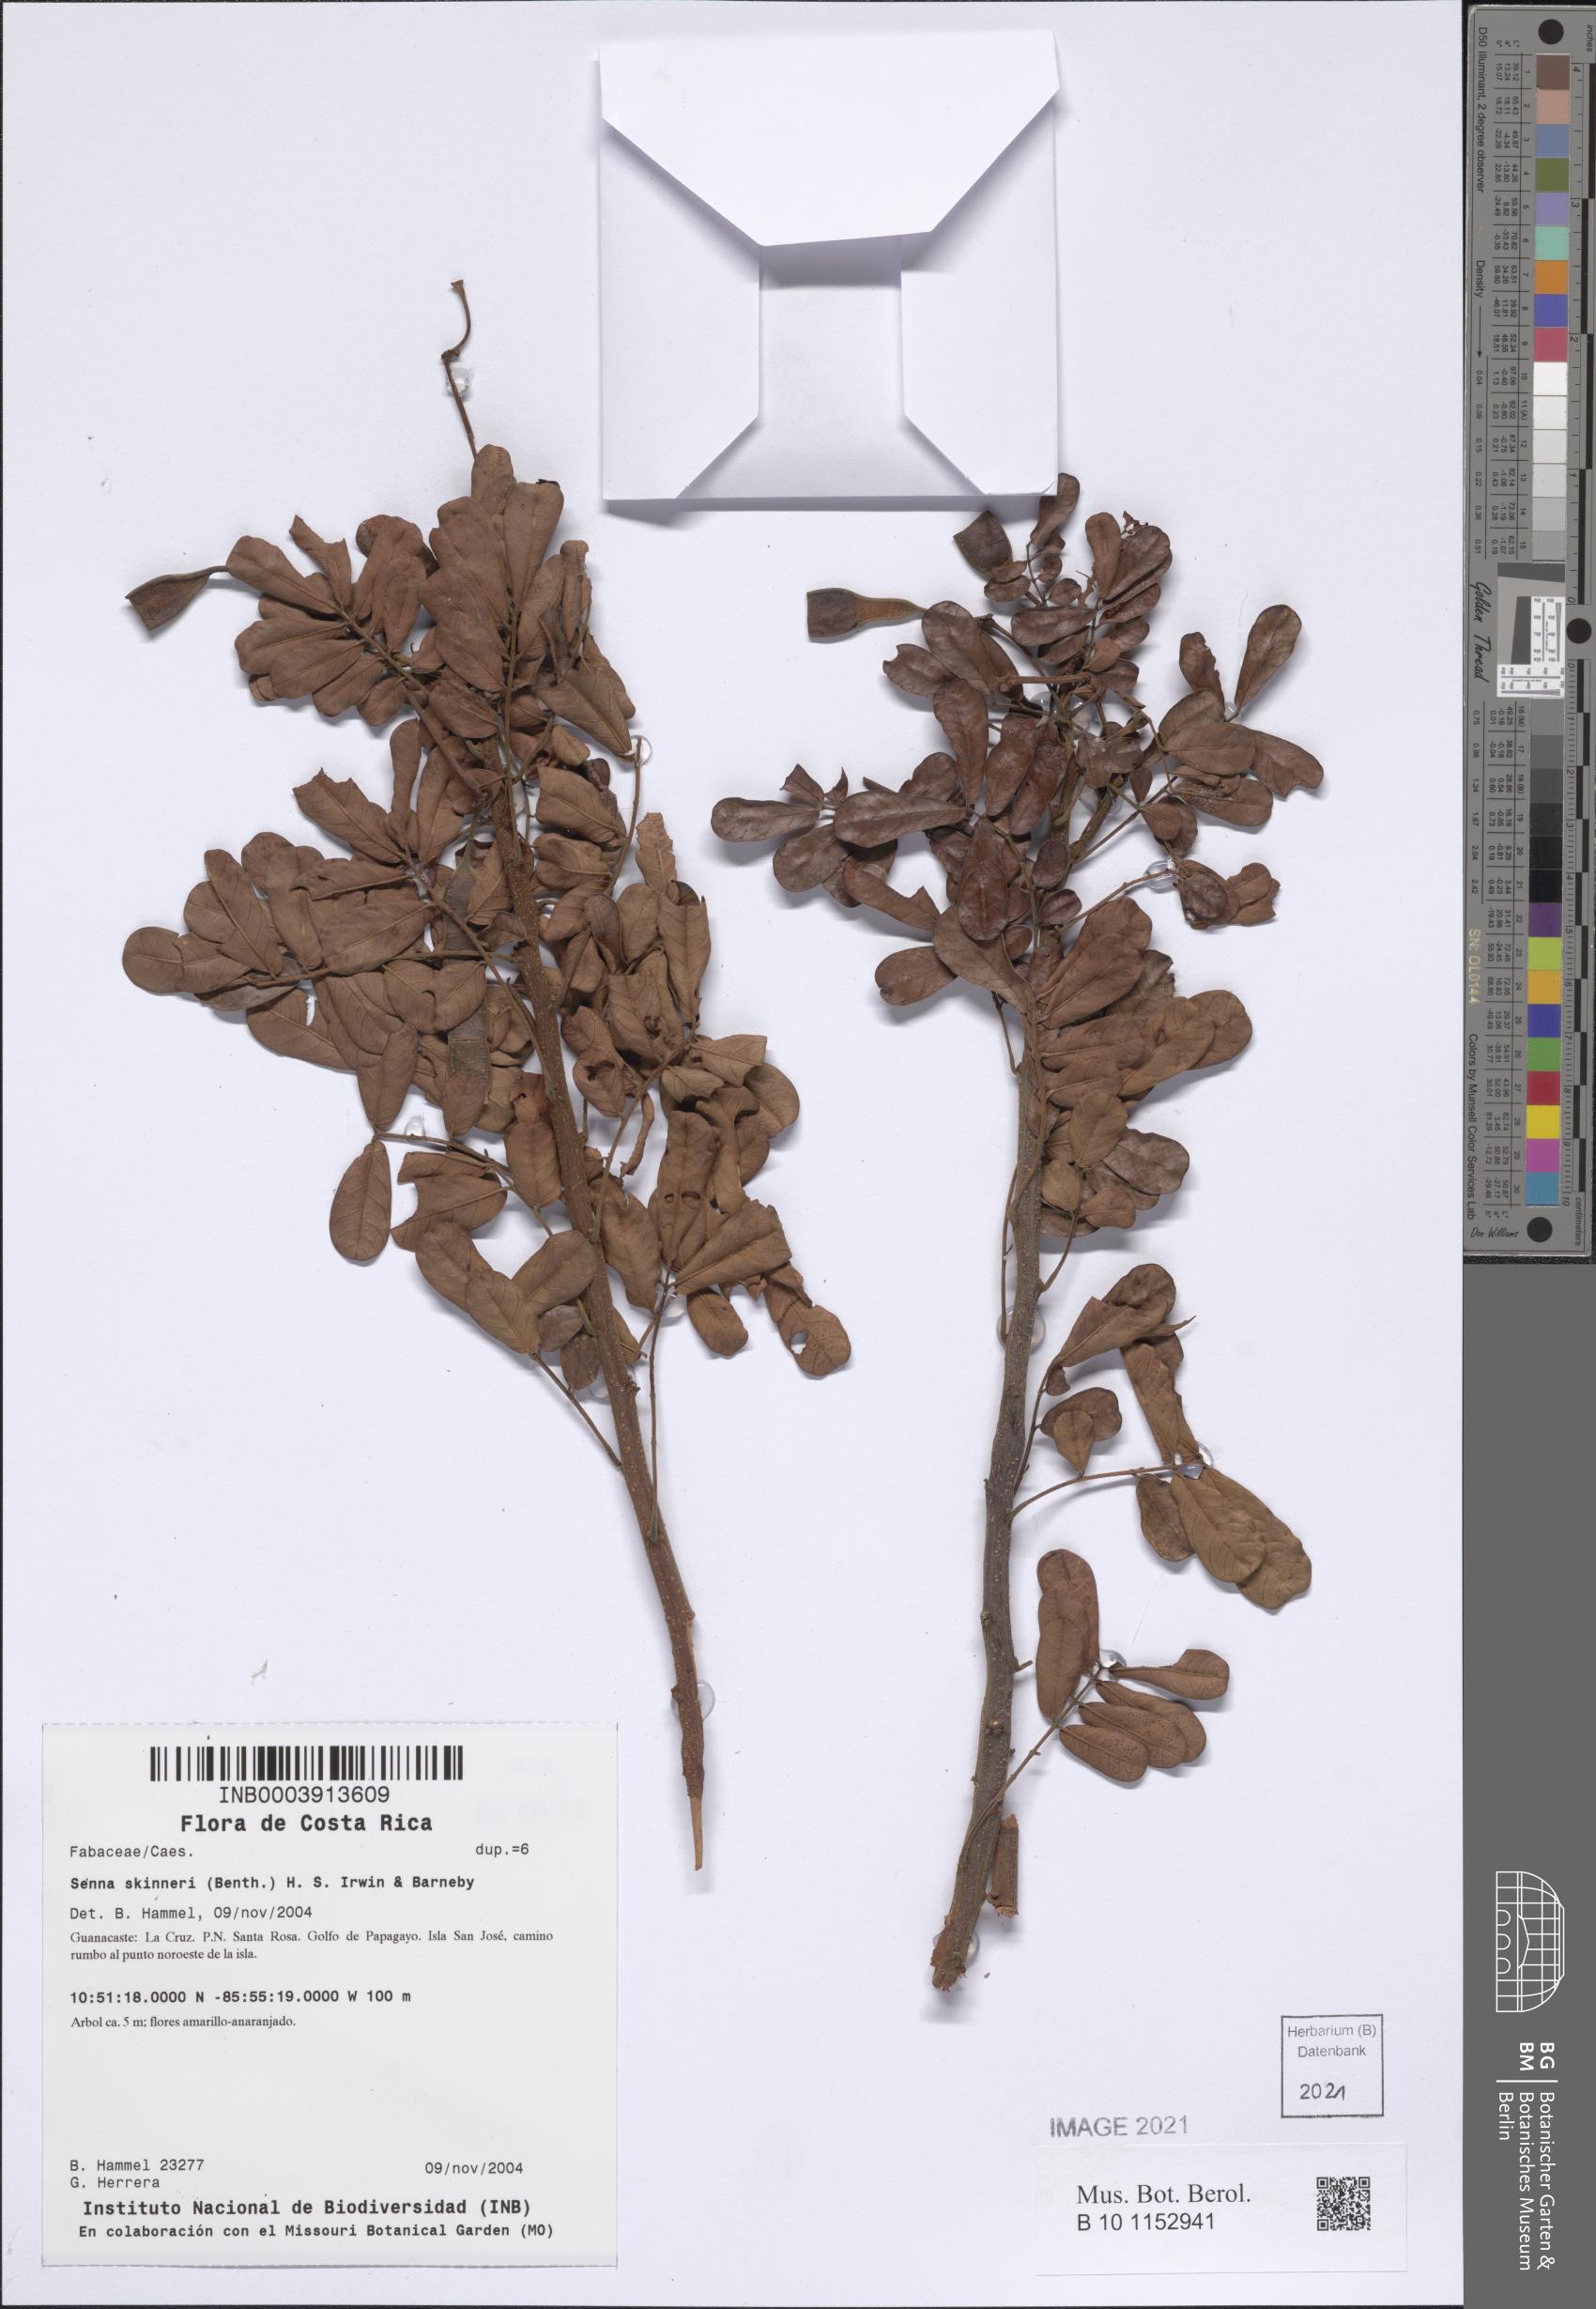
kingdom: Plantae
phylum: Tracheophyta
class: Magnoliopsida
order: Fabales
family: Fabaceae
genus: Senna
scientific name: Senna skinneri
